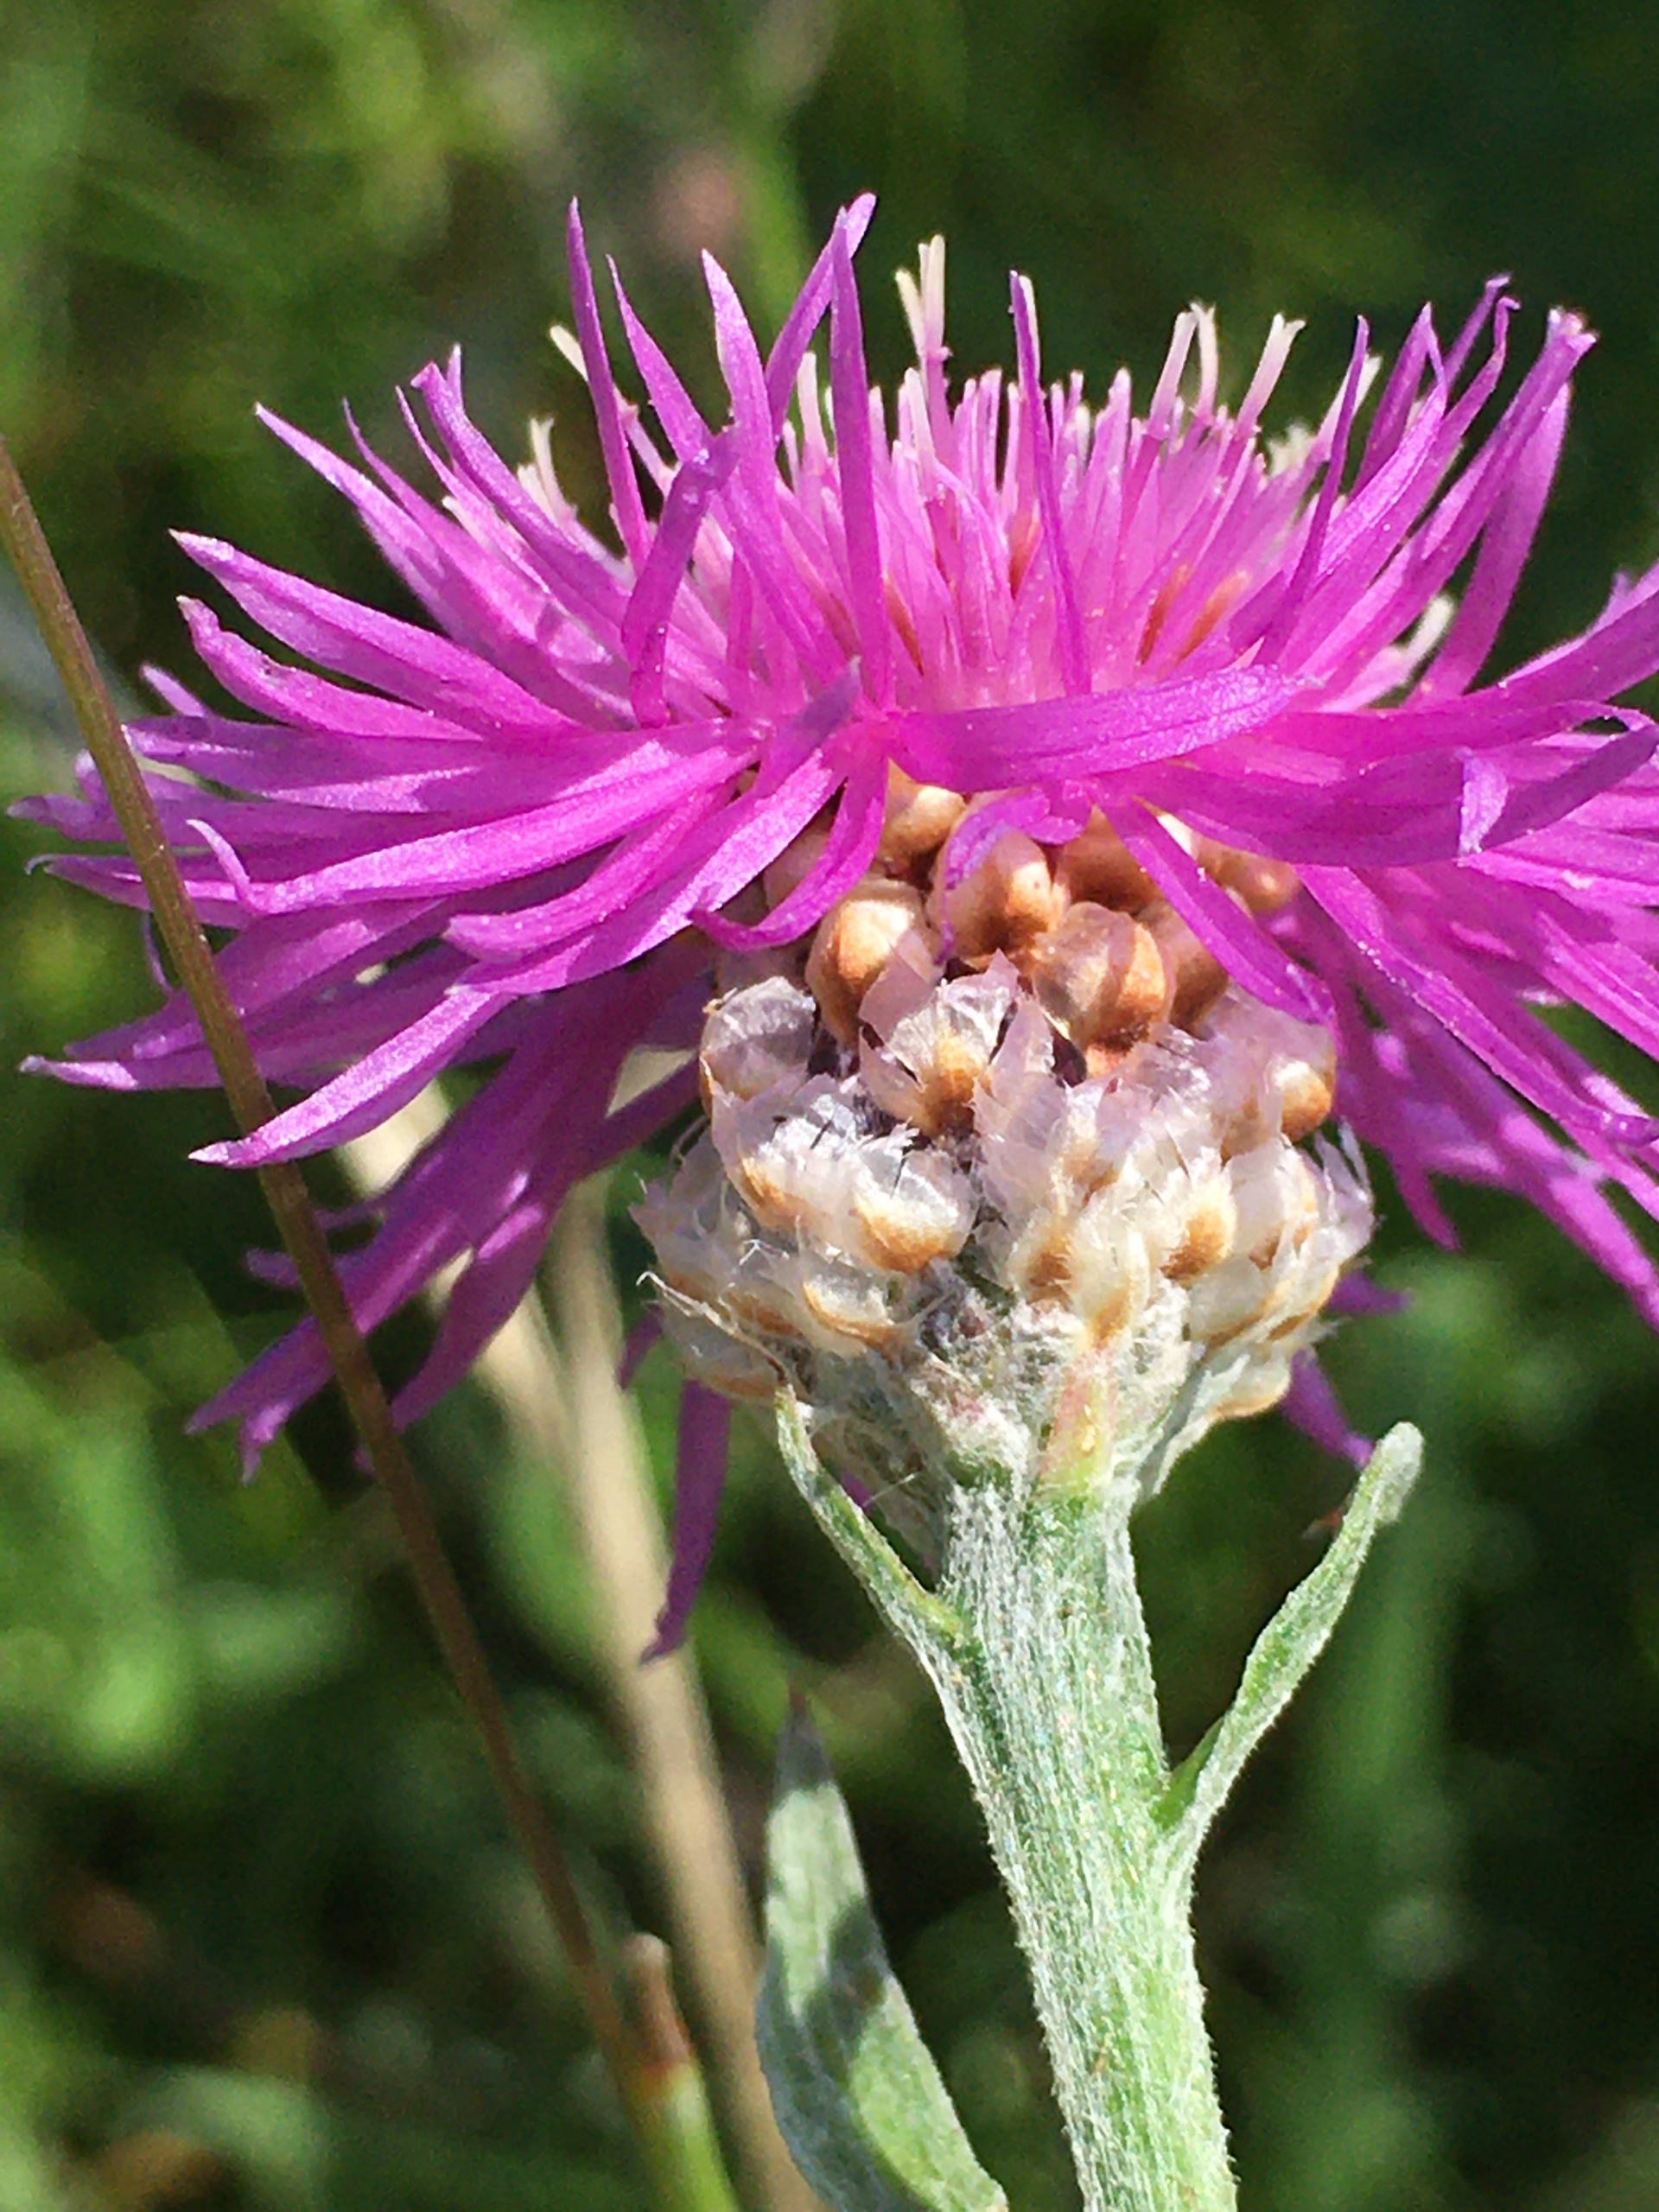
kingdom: Plantae
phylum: Tracheophyta
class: Magnoliopsida
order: Asterales
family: Asteraceae
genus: Centaurea
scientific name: Centaurea jacea
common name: Almindelig knopurt
